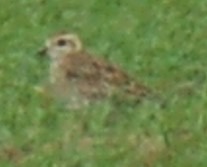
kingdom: Animalia
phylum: Chordata
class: Aves
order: Charadriiformes
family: Charadriidae
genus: Pluvialis
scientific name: Pluvialis apricaria
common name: Hjejle
